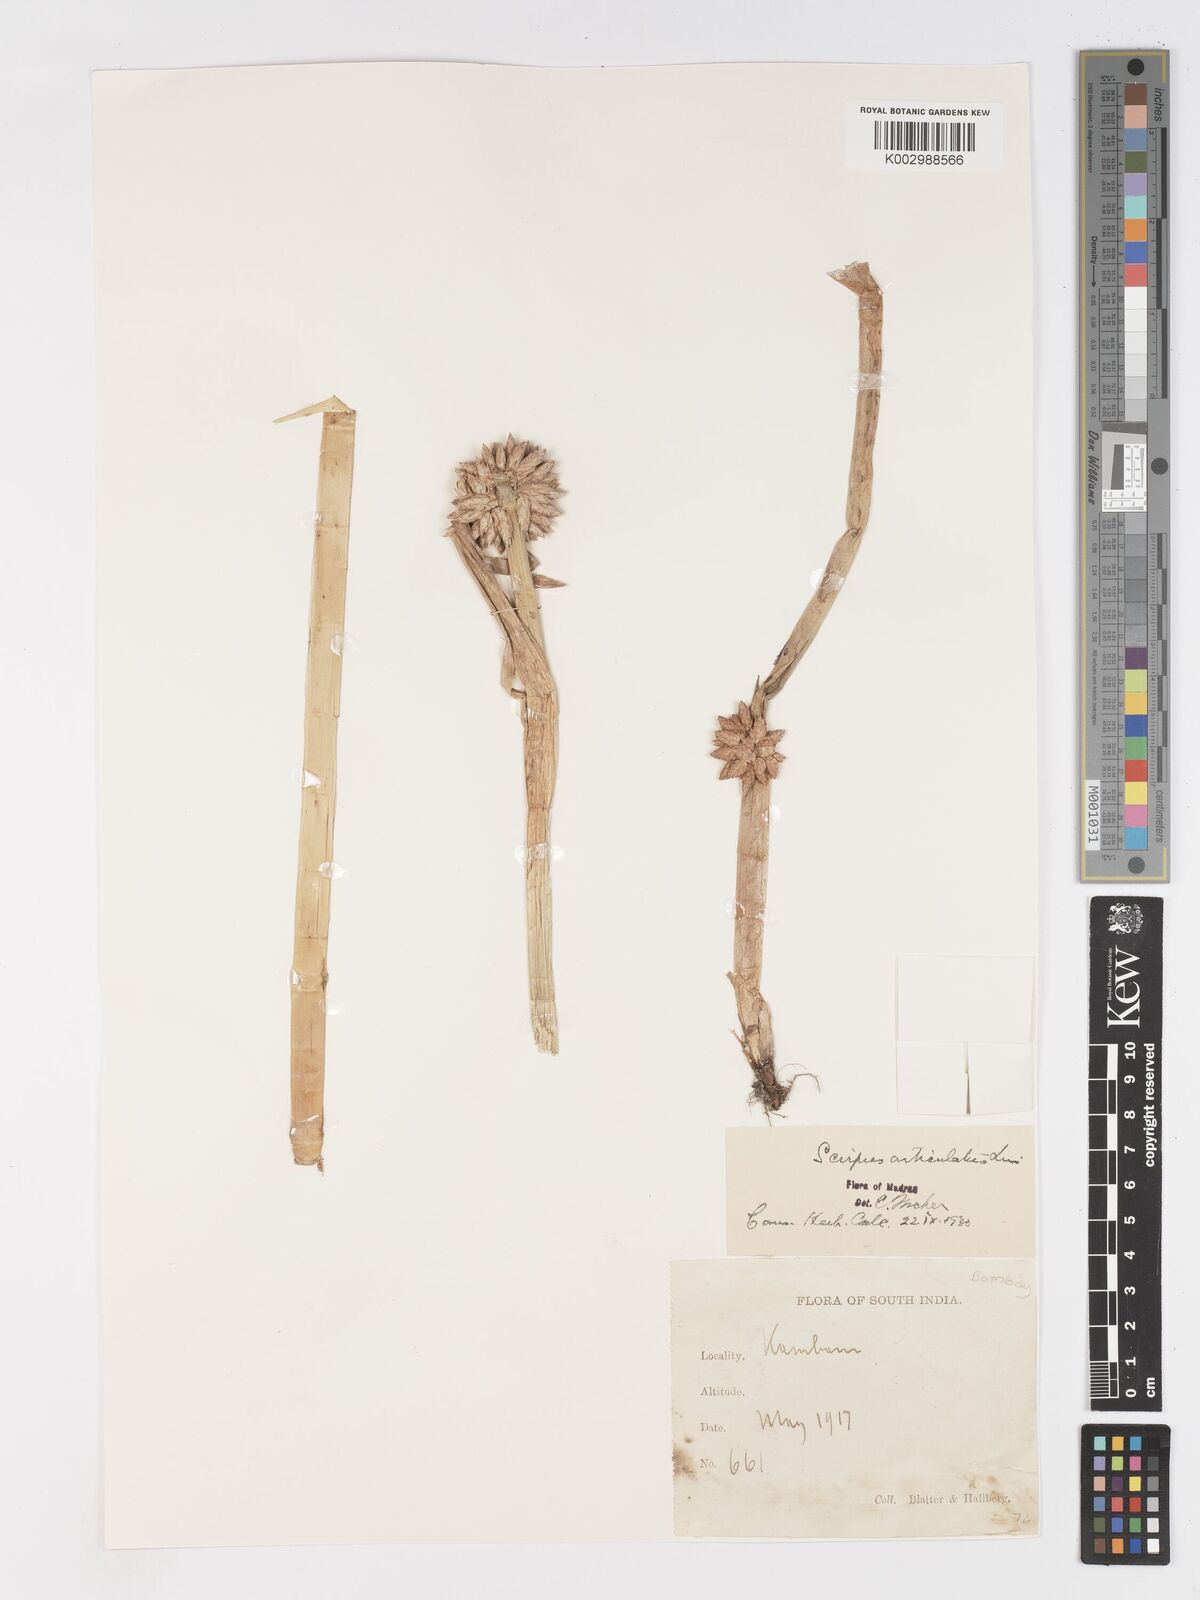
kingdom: Plantae
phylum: Tracheophyta
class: Liliopsida
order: Poales
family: Cyperaceae
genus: Schoenoplectiella
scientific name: Schoenoplectiella articulata
